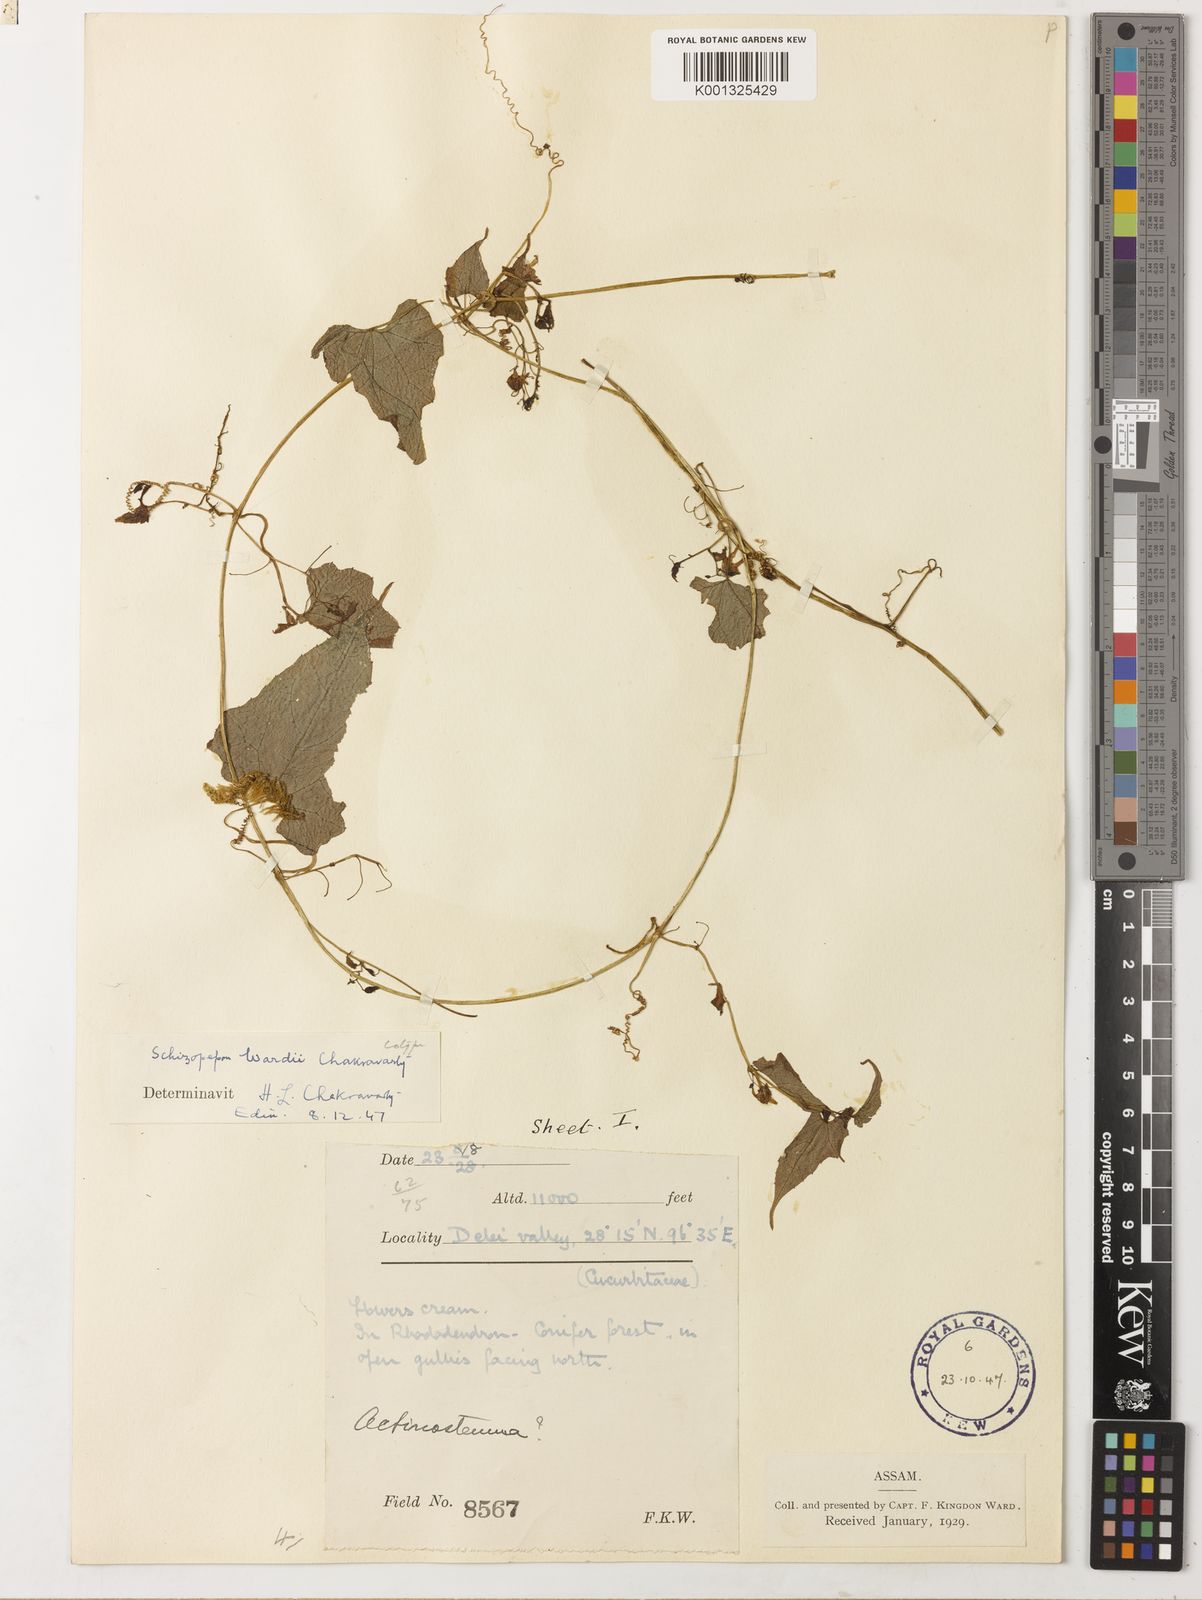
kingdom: Plantae
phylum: Tracheophyta
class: Magnoliopsida
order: Cucurbitales
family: Cucurbitaceae
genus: Schizopepon
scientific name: Schizopepon bicirrhosa
